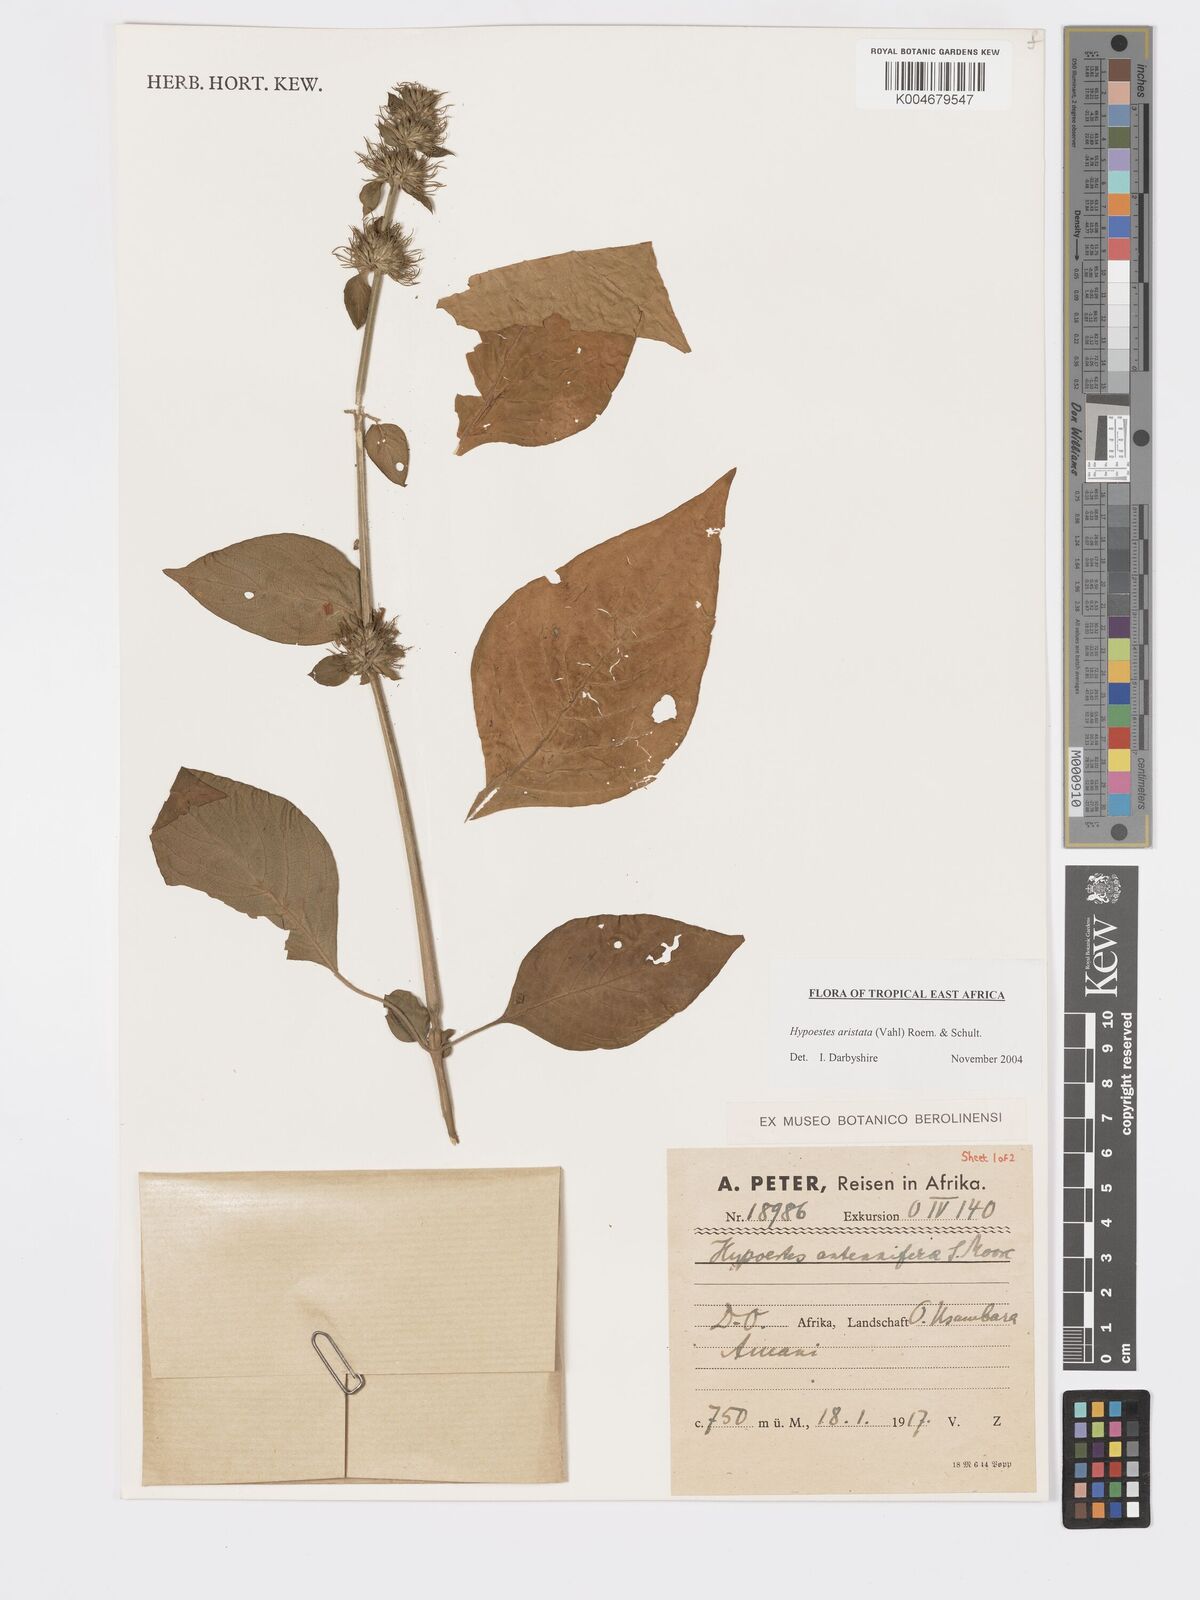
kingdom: Plantae
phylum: Tracheophyta
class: Magnoliopsida
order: Lamiales
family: Acanthaceae
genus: Hypoestes
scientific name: Hypoestes aristata
